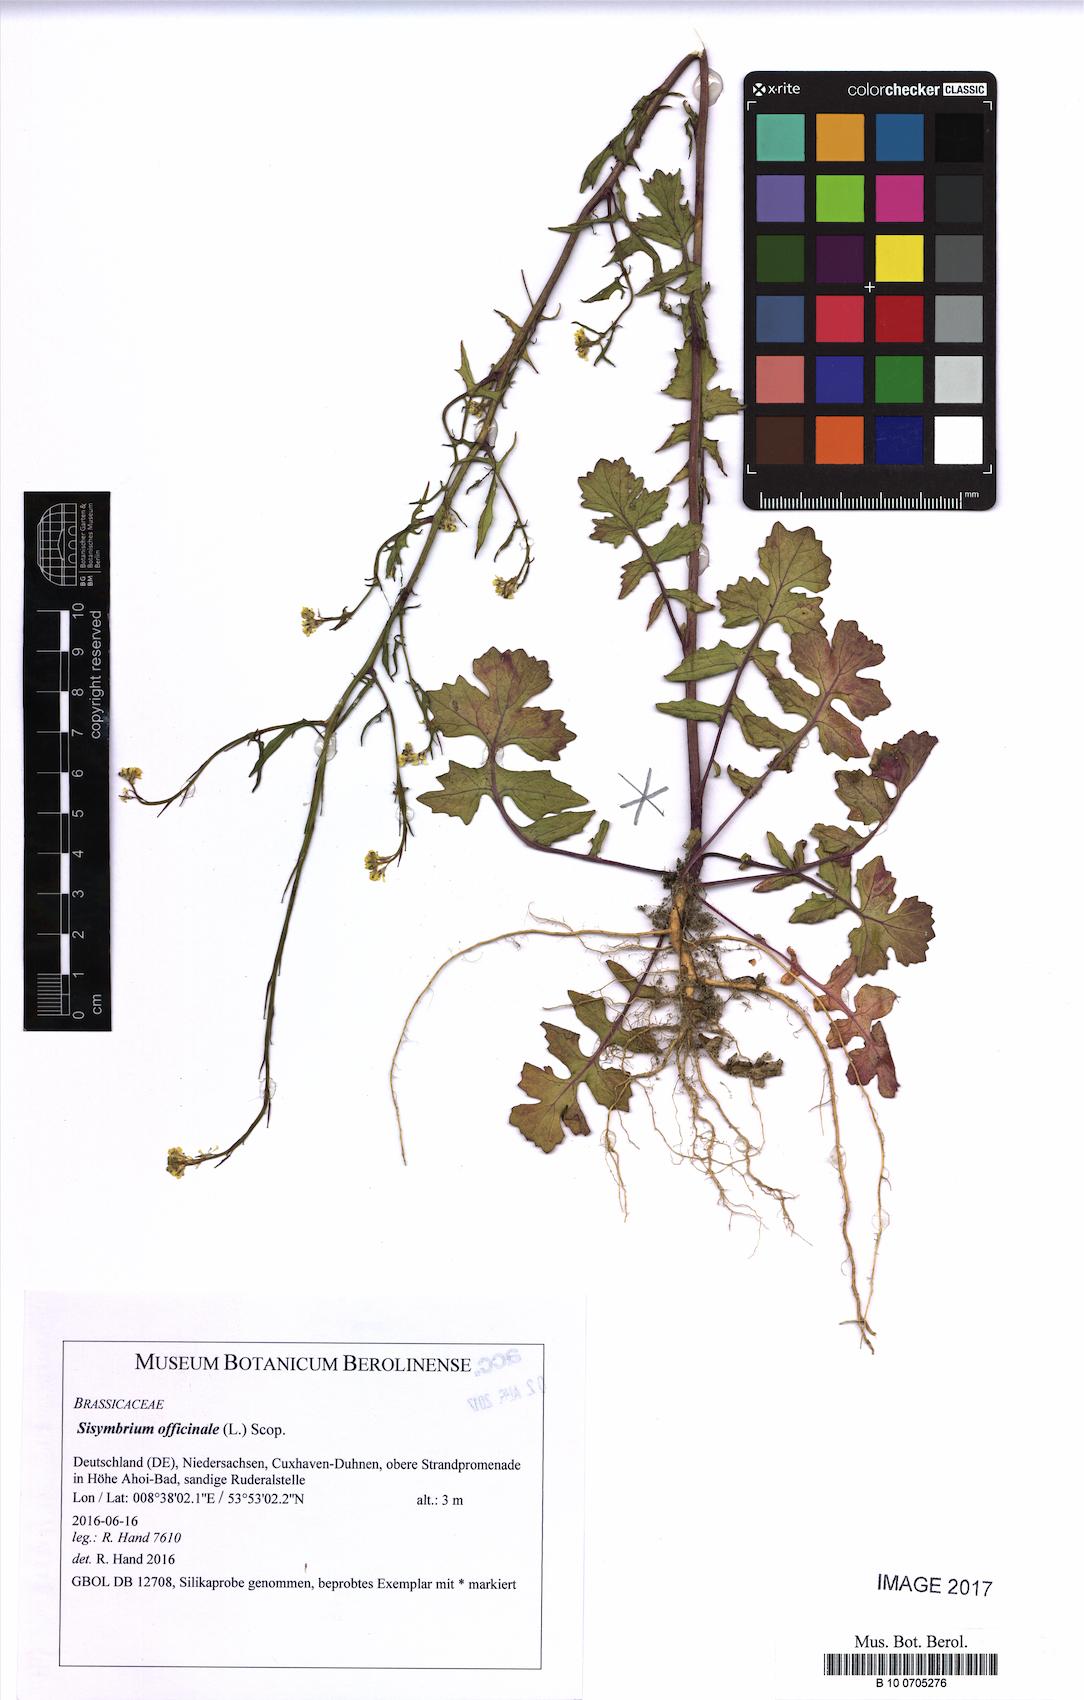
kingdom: Plantae
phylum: Tracheophyta
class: Magnoliopsida
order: Brassicales
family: Brassicaceae
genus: Sisymbrium
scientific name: Sisymbrium officinale
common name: Hedge mustard
